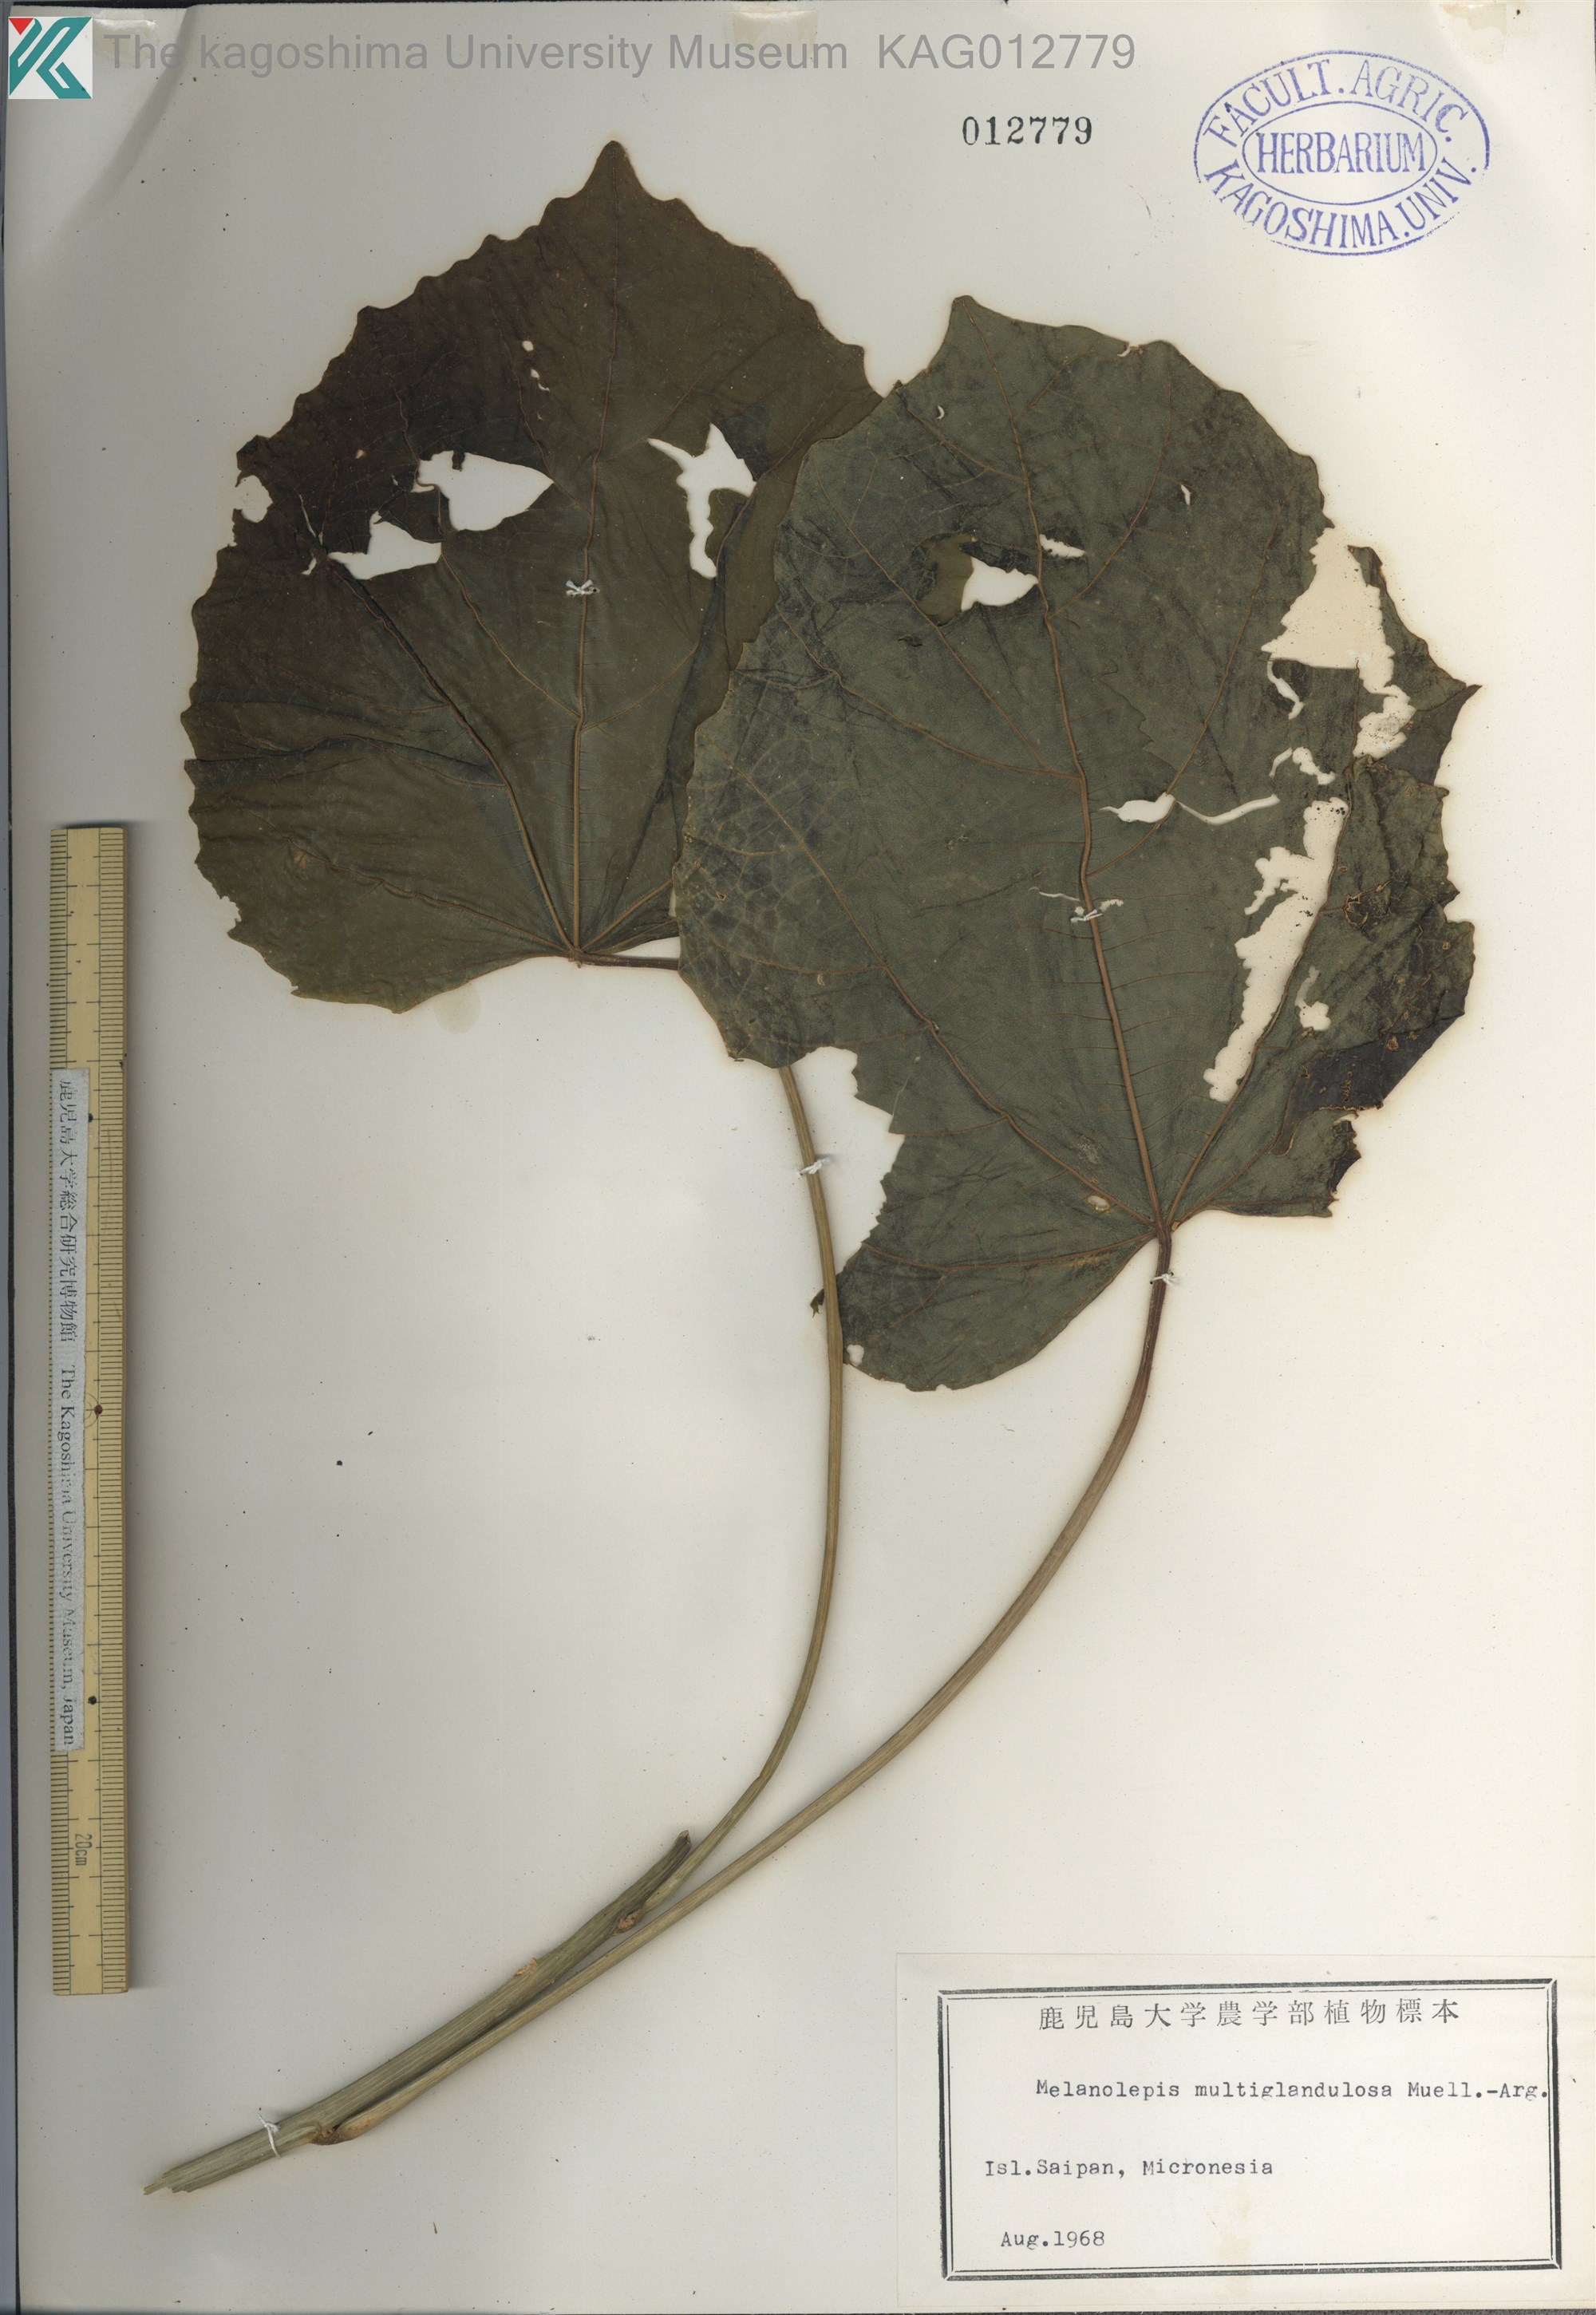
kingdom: Plantae
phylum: Tracheophyta
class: Magnoliopsida
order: Malpighiales
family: Euphorbiaceae
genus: Melanolepis
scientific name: Melanolepis multiglandulosa
